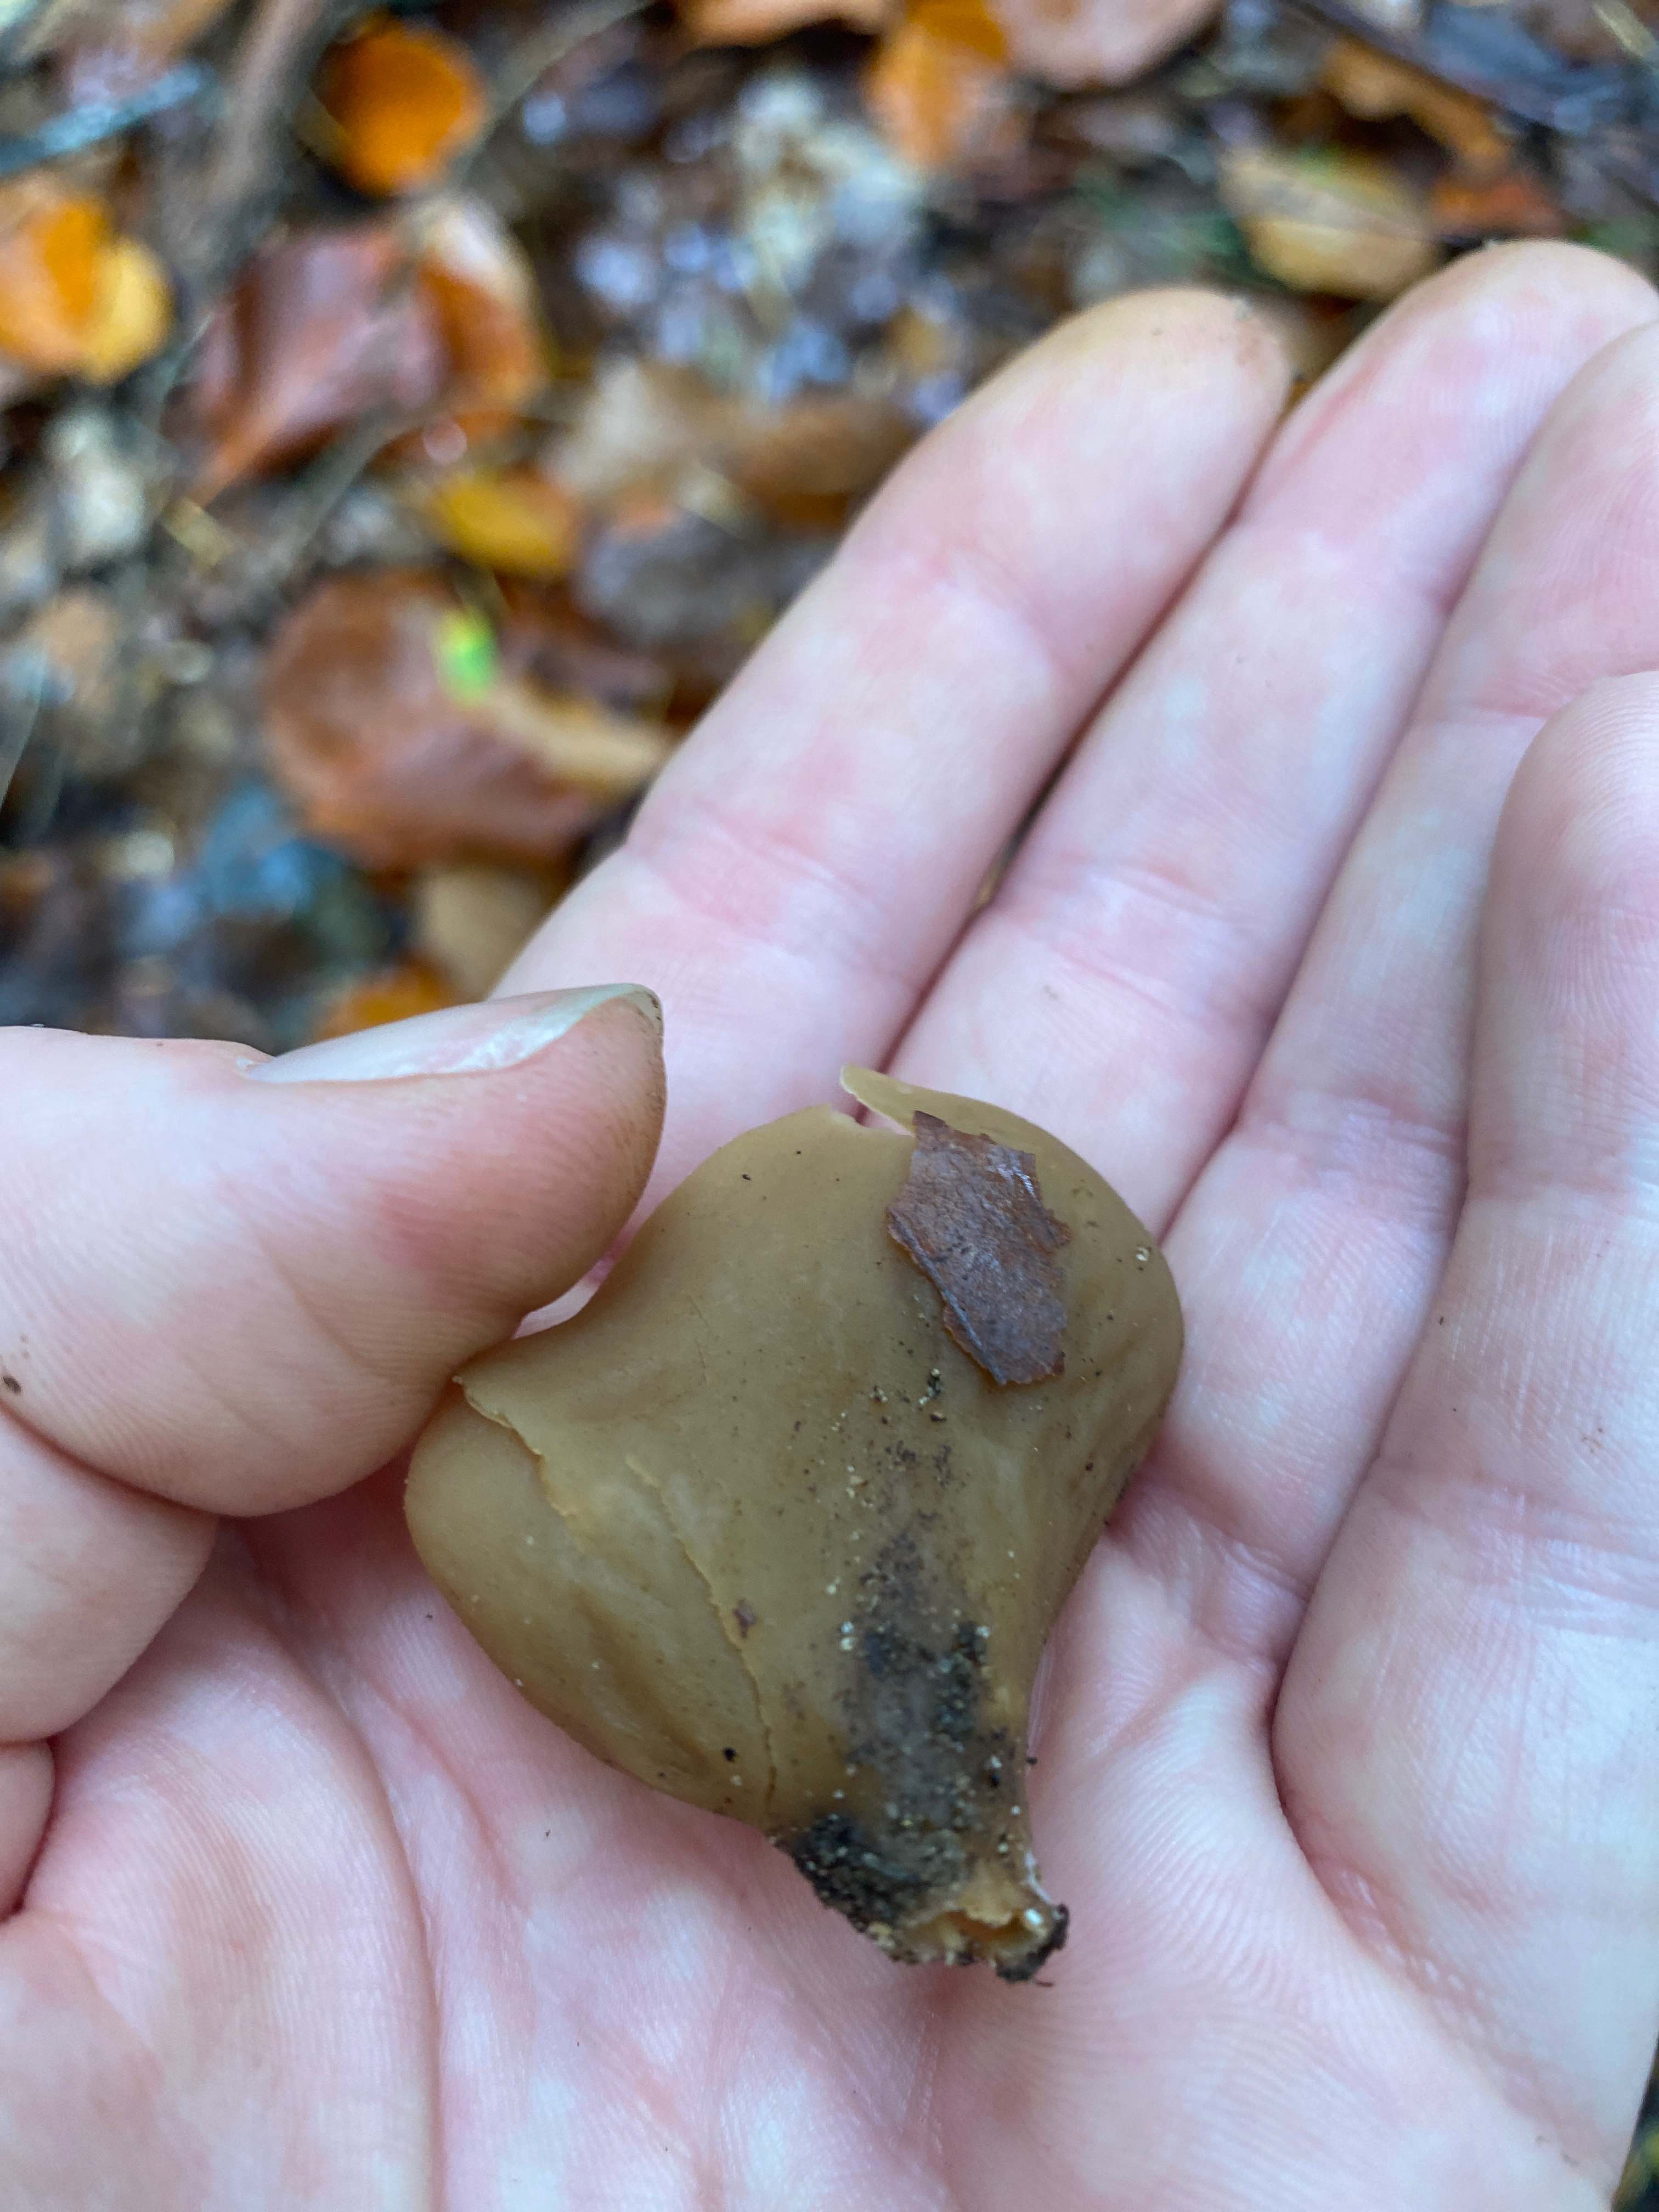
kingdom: Fungi
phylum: Ascomycota
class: Pezizomycetes
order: Pezizales
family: Otideaceae
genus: Otidea
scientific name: Otidea
